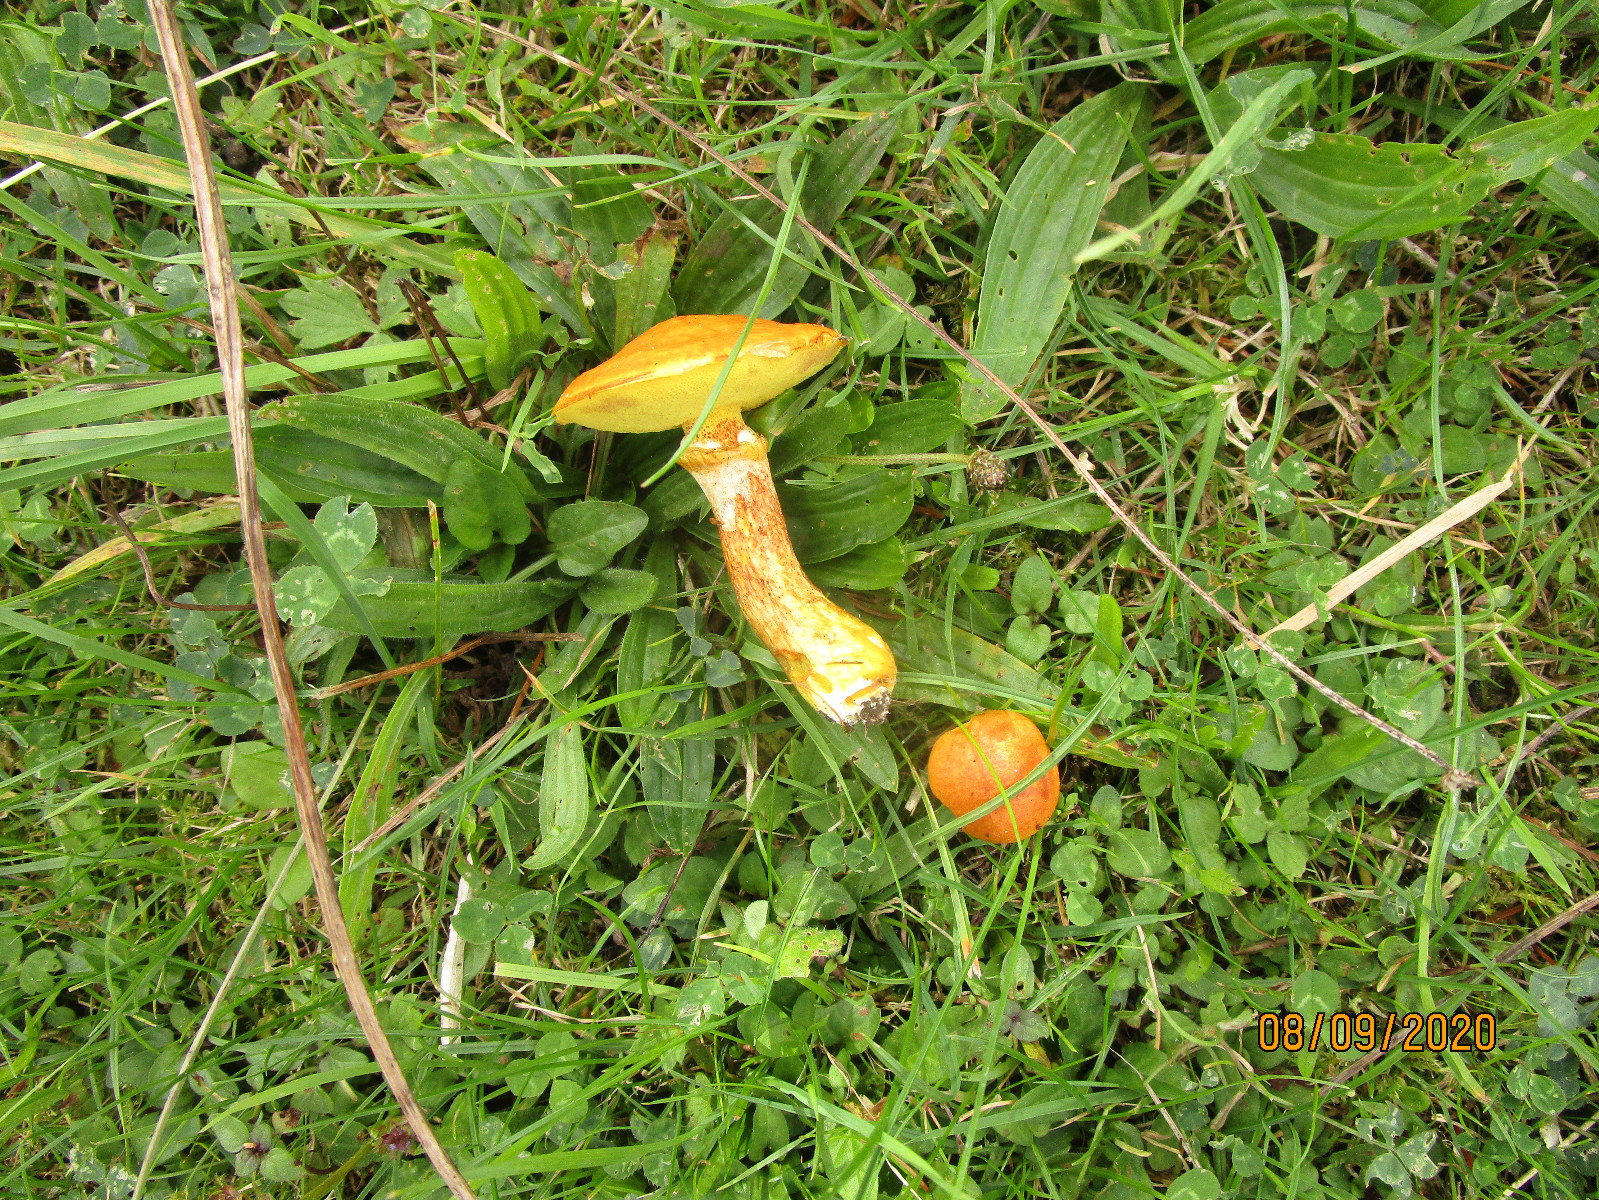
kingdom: Fungi
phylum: Basidiomycota
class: Agaricomycetes
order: Boletales
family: Suillaceae
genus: Suillus
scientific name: Suillus grevillei
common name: lærke-slimrørhat
